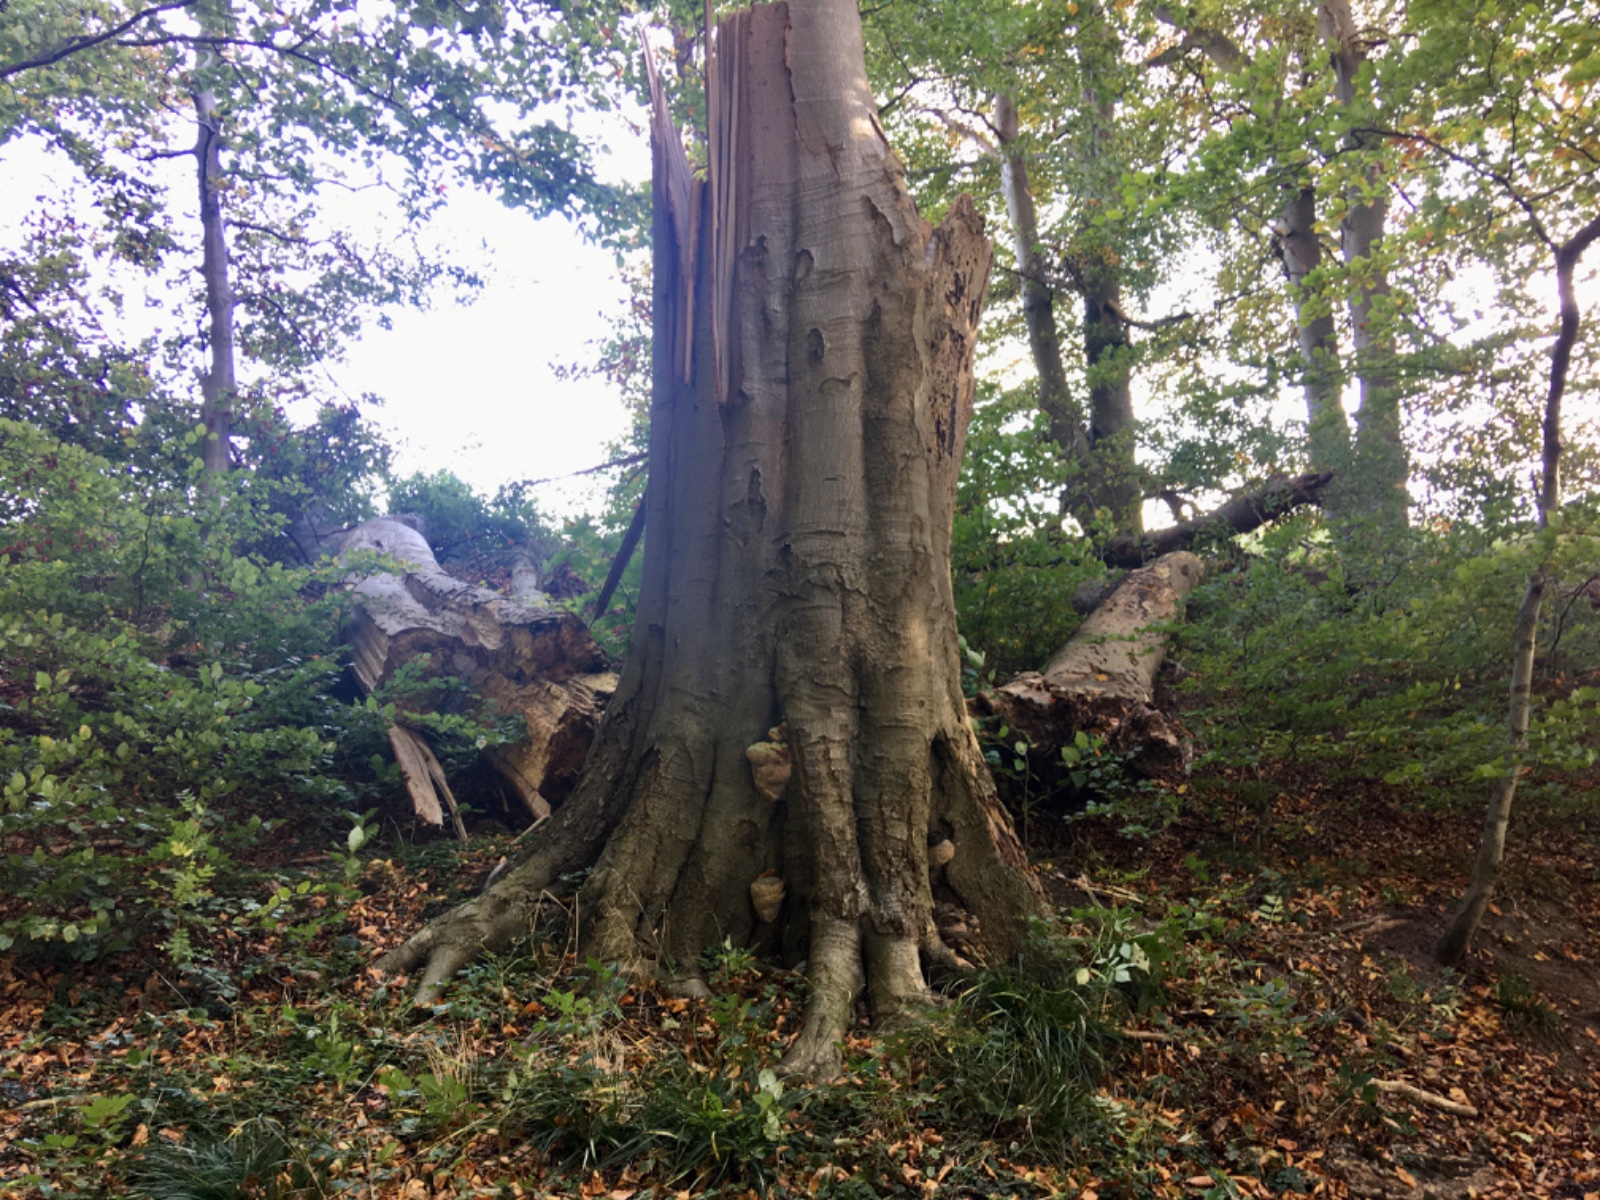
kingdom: Fungi
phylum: Basidiomycota
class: Agaricomycetes
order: Polyporales
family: Polyporaceae
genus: Ganoderma
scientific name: Ganoderma pfeifferi
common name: kobberrød lakporesvamp
